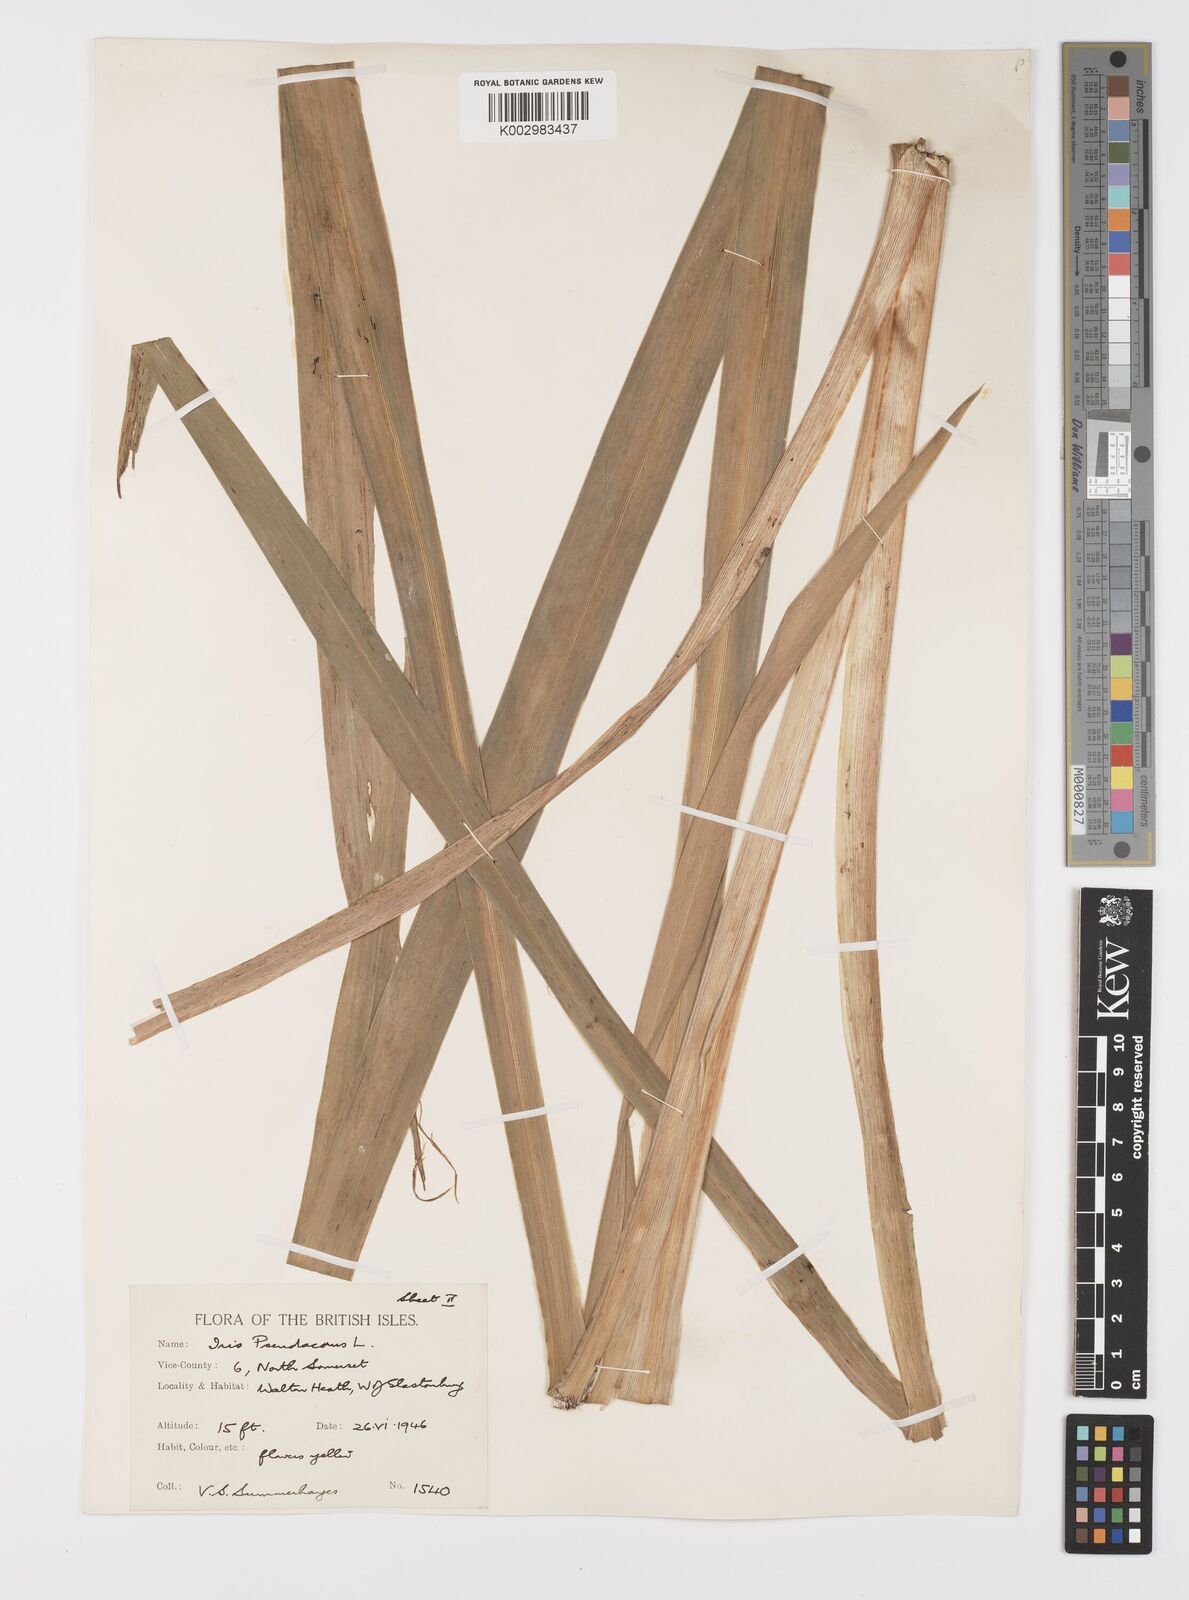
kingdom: Plantae
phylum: Tracheophyta
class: Liliopsida
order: Asparagales
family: Iridaceae
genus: Iris
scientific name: Iris pseudacorus
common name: Yellow flag
